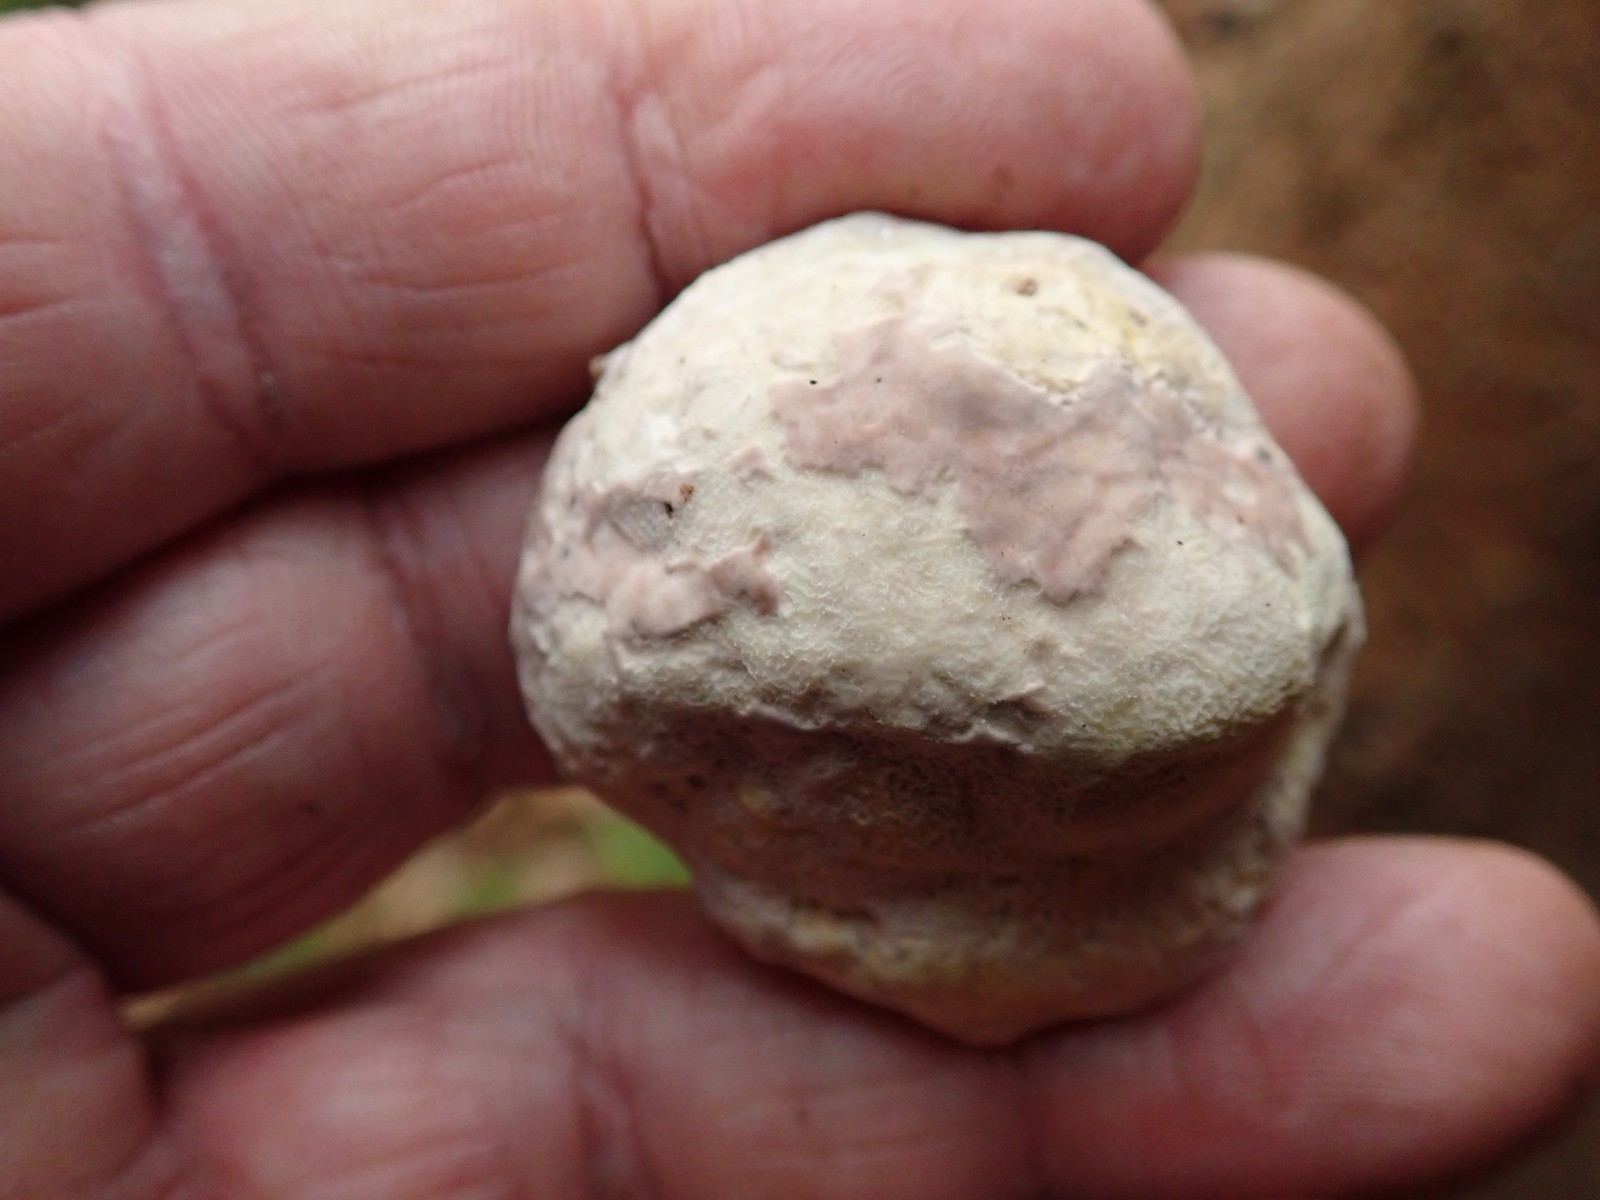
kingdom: Fungi
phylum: Basidiomycota
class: Agaricomycetes
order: Polyporales
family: Fomitopsidaceae
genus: Fomitopsis
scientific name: Fomitopsis pinicola
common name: randbæltet hovporesvamp
